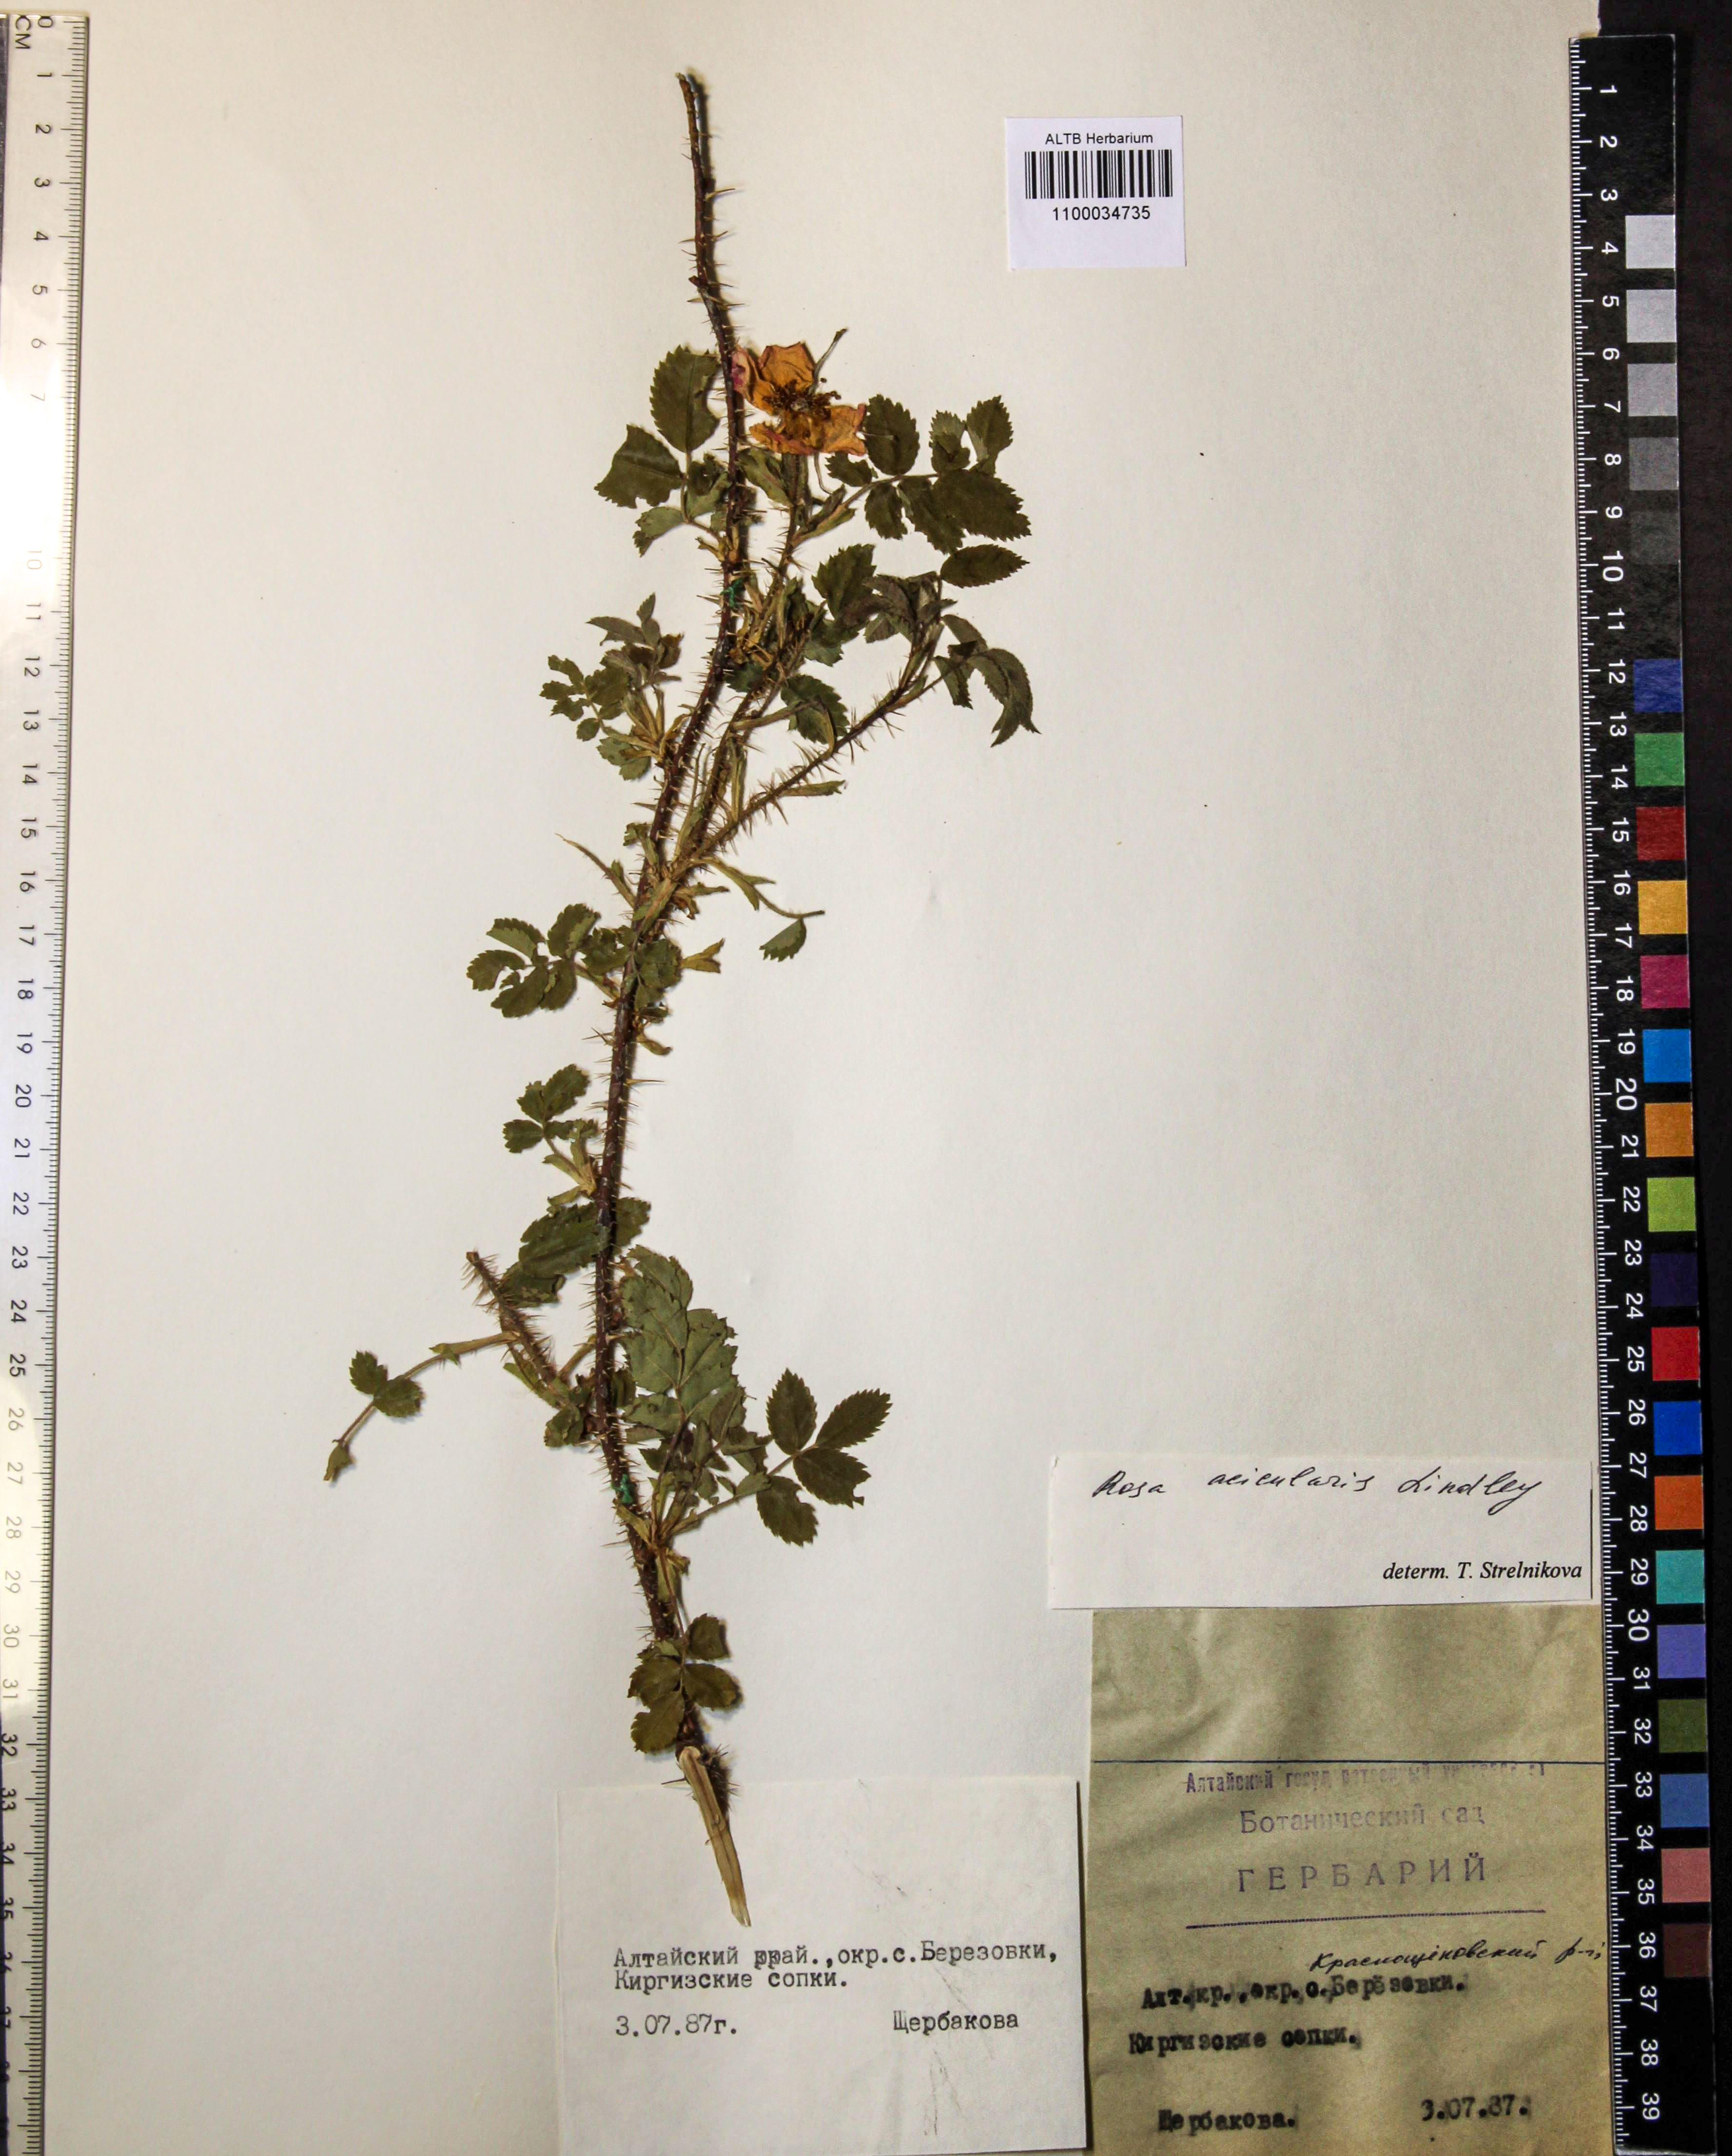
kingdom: Plantae
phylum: Tracheophyta
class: Magnoliopsida
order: Rosales
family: Rosaceae
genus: Rosa
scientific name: Rosa acicularis
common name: Prickly rose
